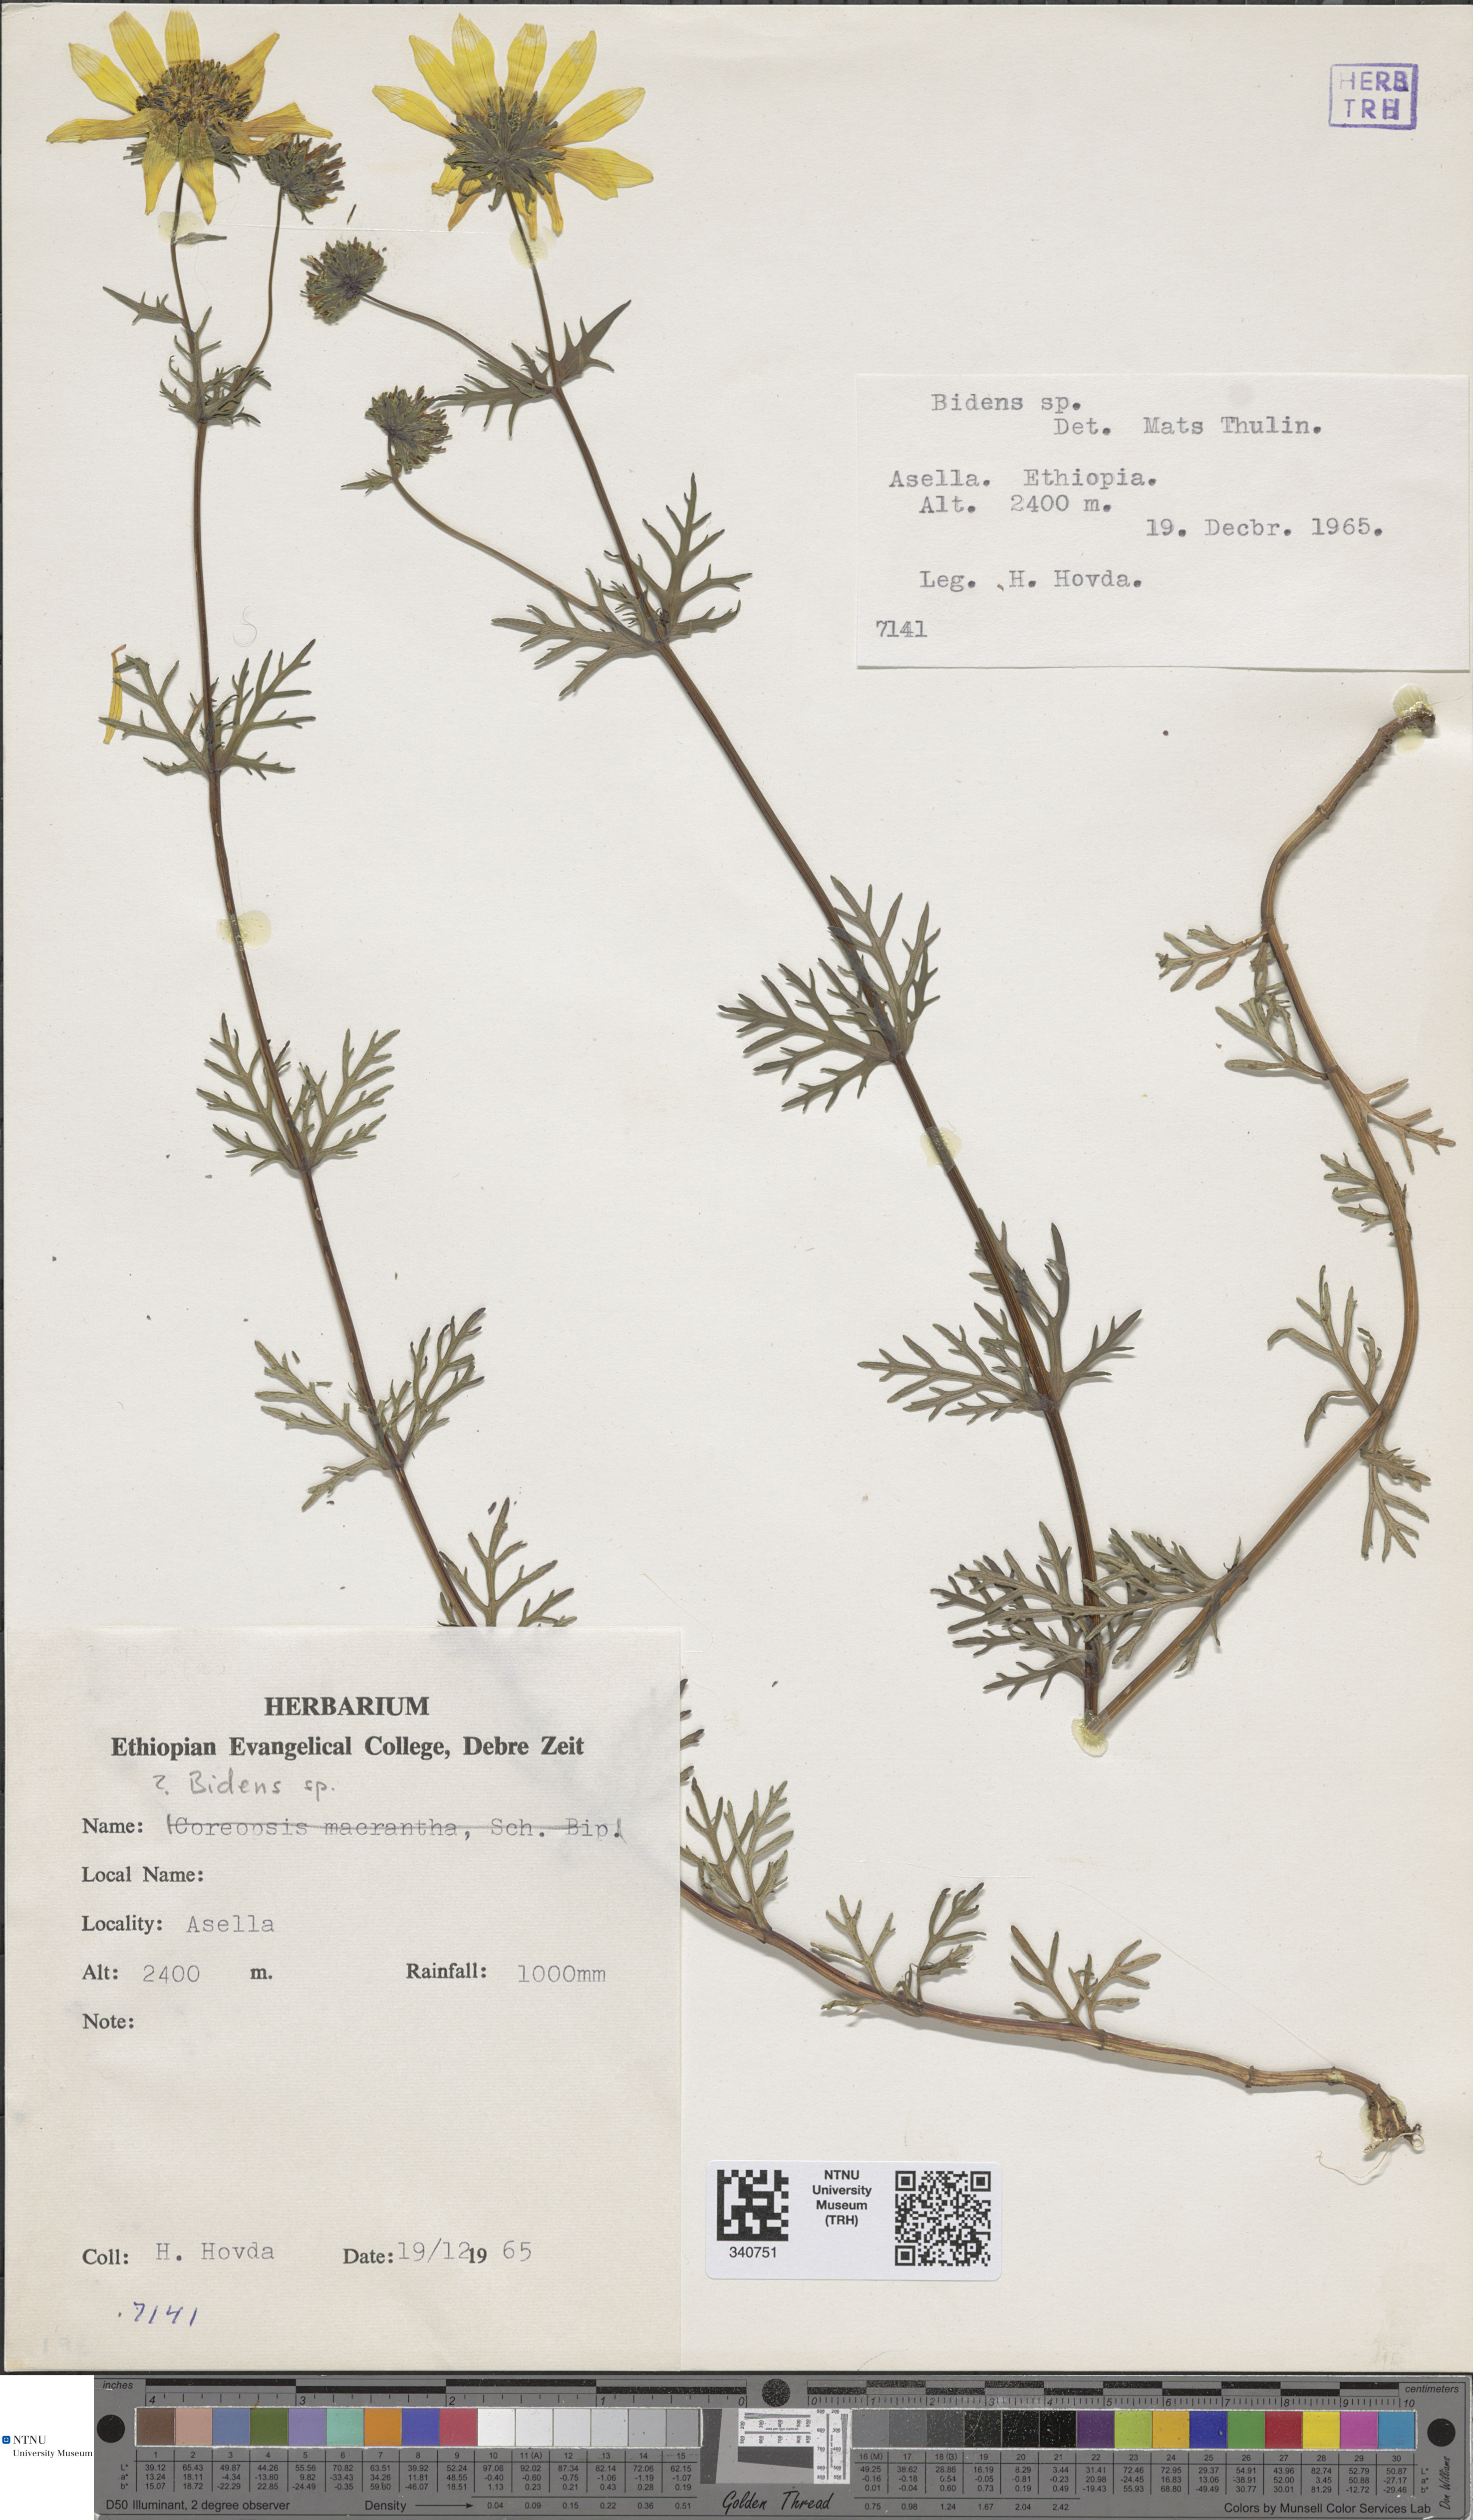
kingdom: Plantae
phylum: Tracheophyta
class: Magnoliopsida
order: Asterales
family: Asteraceae
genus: Bidens
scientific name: Bidens
